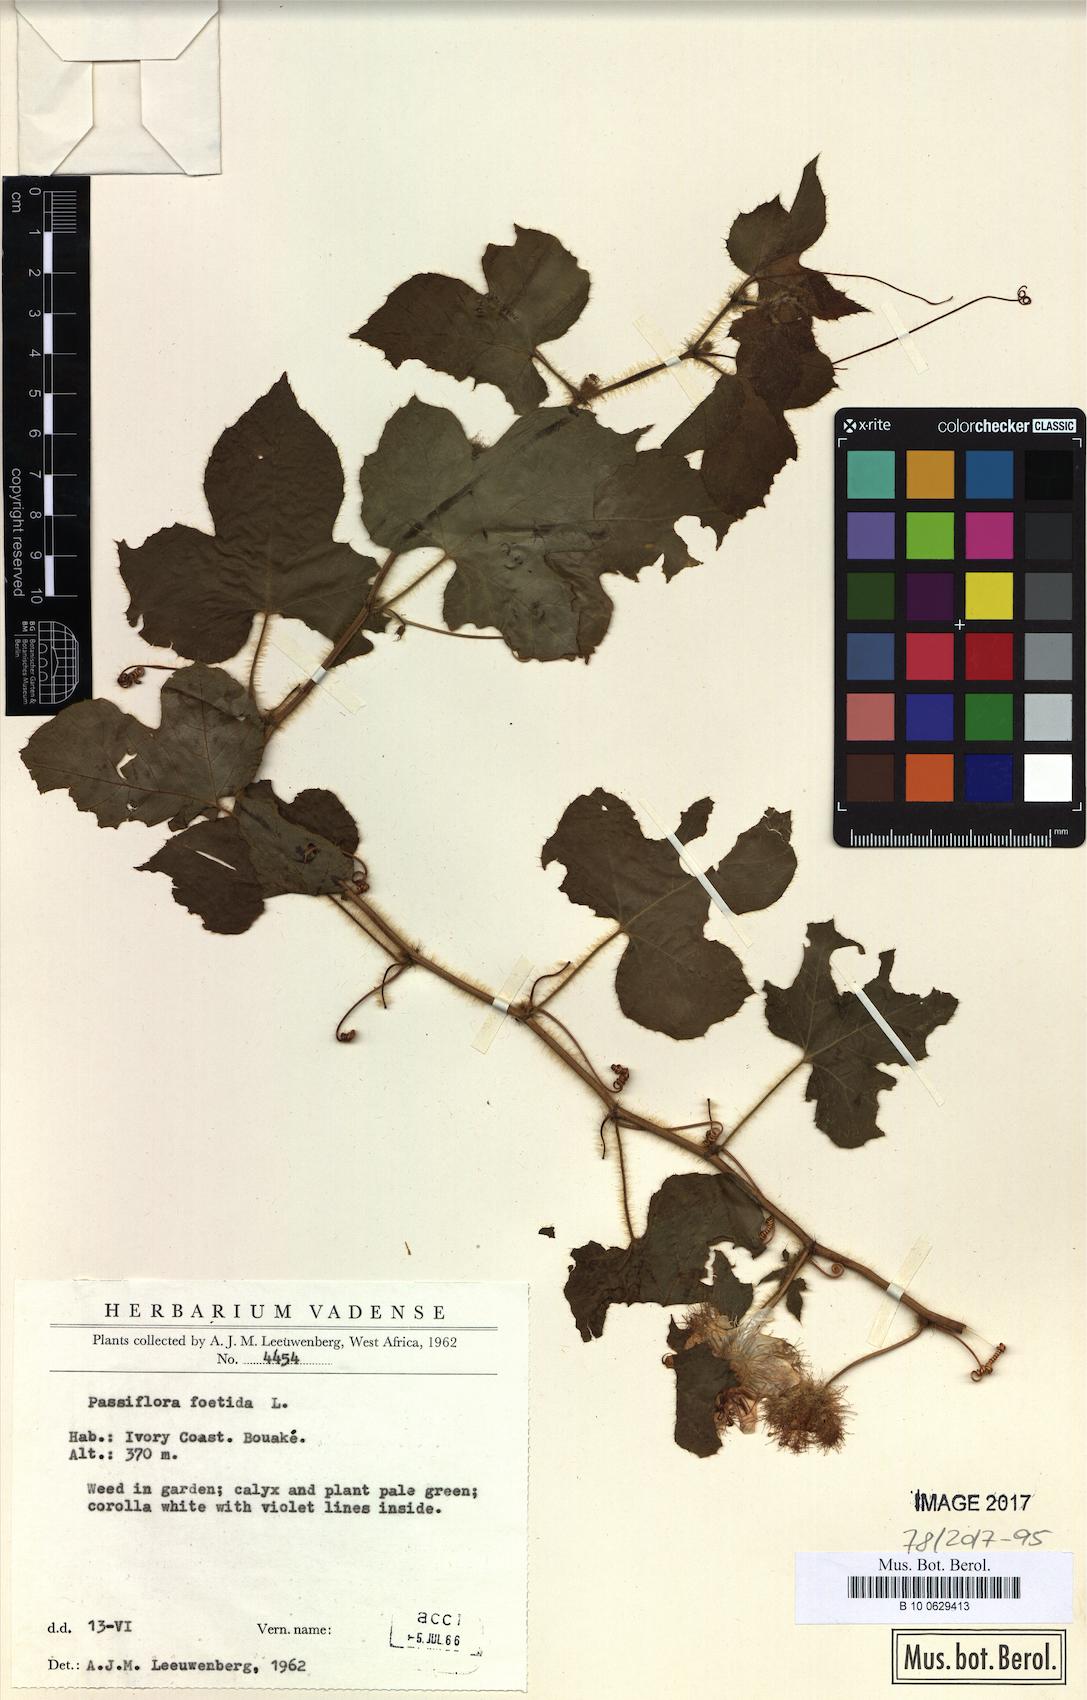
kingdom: Plantae
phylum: Tracheophyta
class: Magnoliopsida
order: Malpighiales
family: Passifloraceae
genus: Passiflora
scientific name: Passiflora foetida
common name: Fetid passionflower
